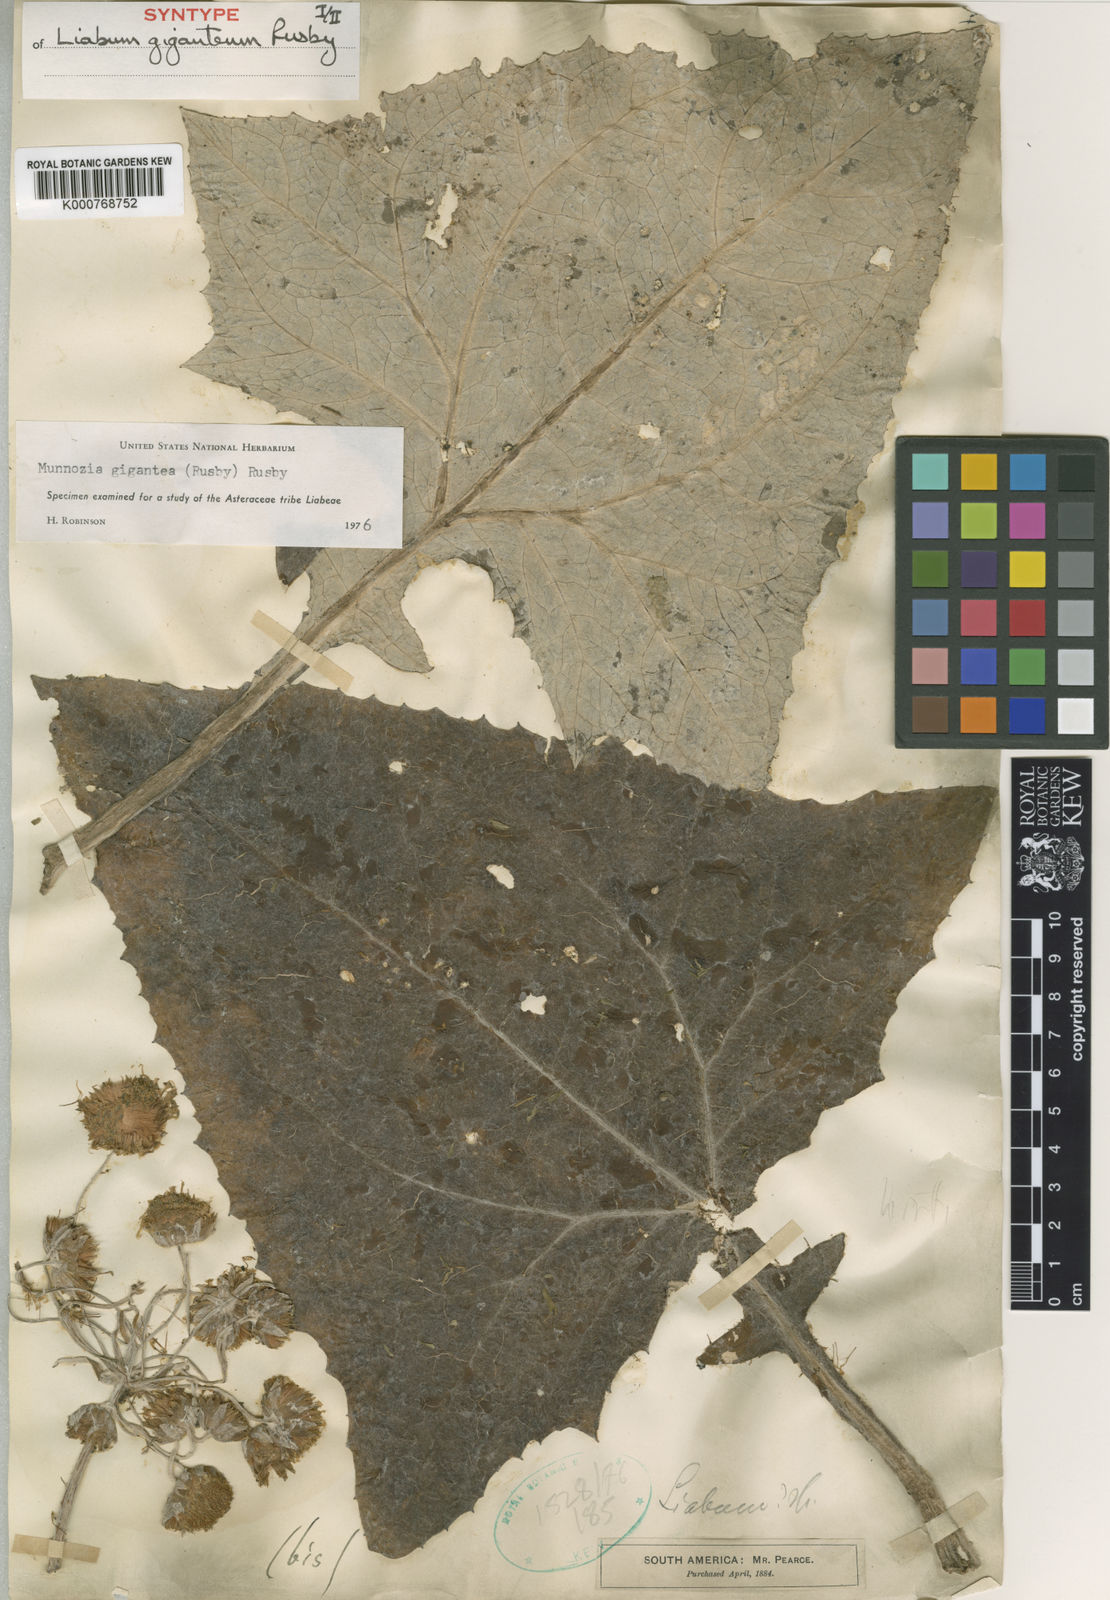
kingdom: Plantae
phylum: Tracheophyta
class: Magnoliopsida
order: Asterales
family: Asteraceae
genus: Munnozia
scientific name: Munnozia gigantea
